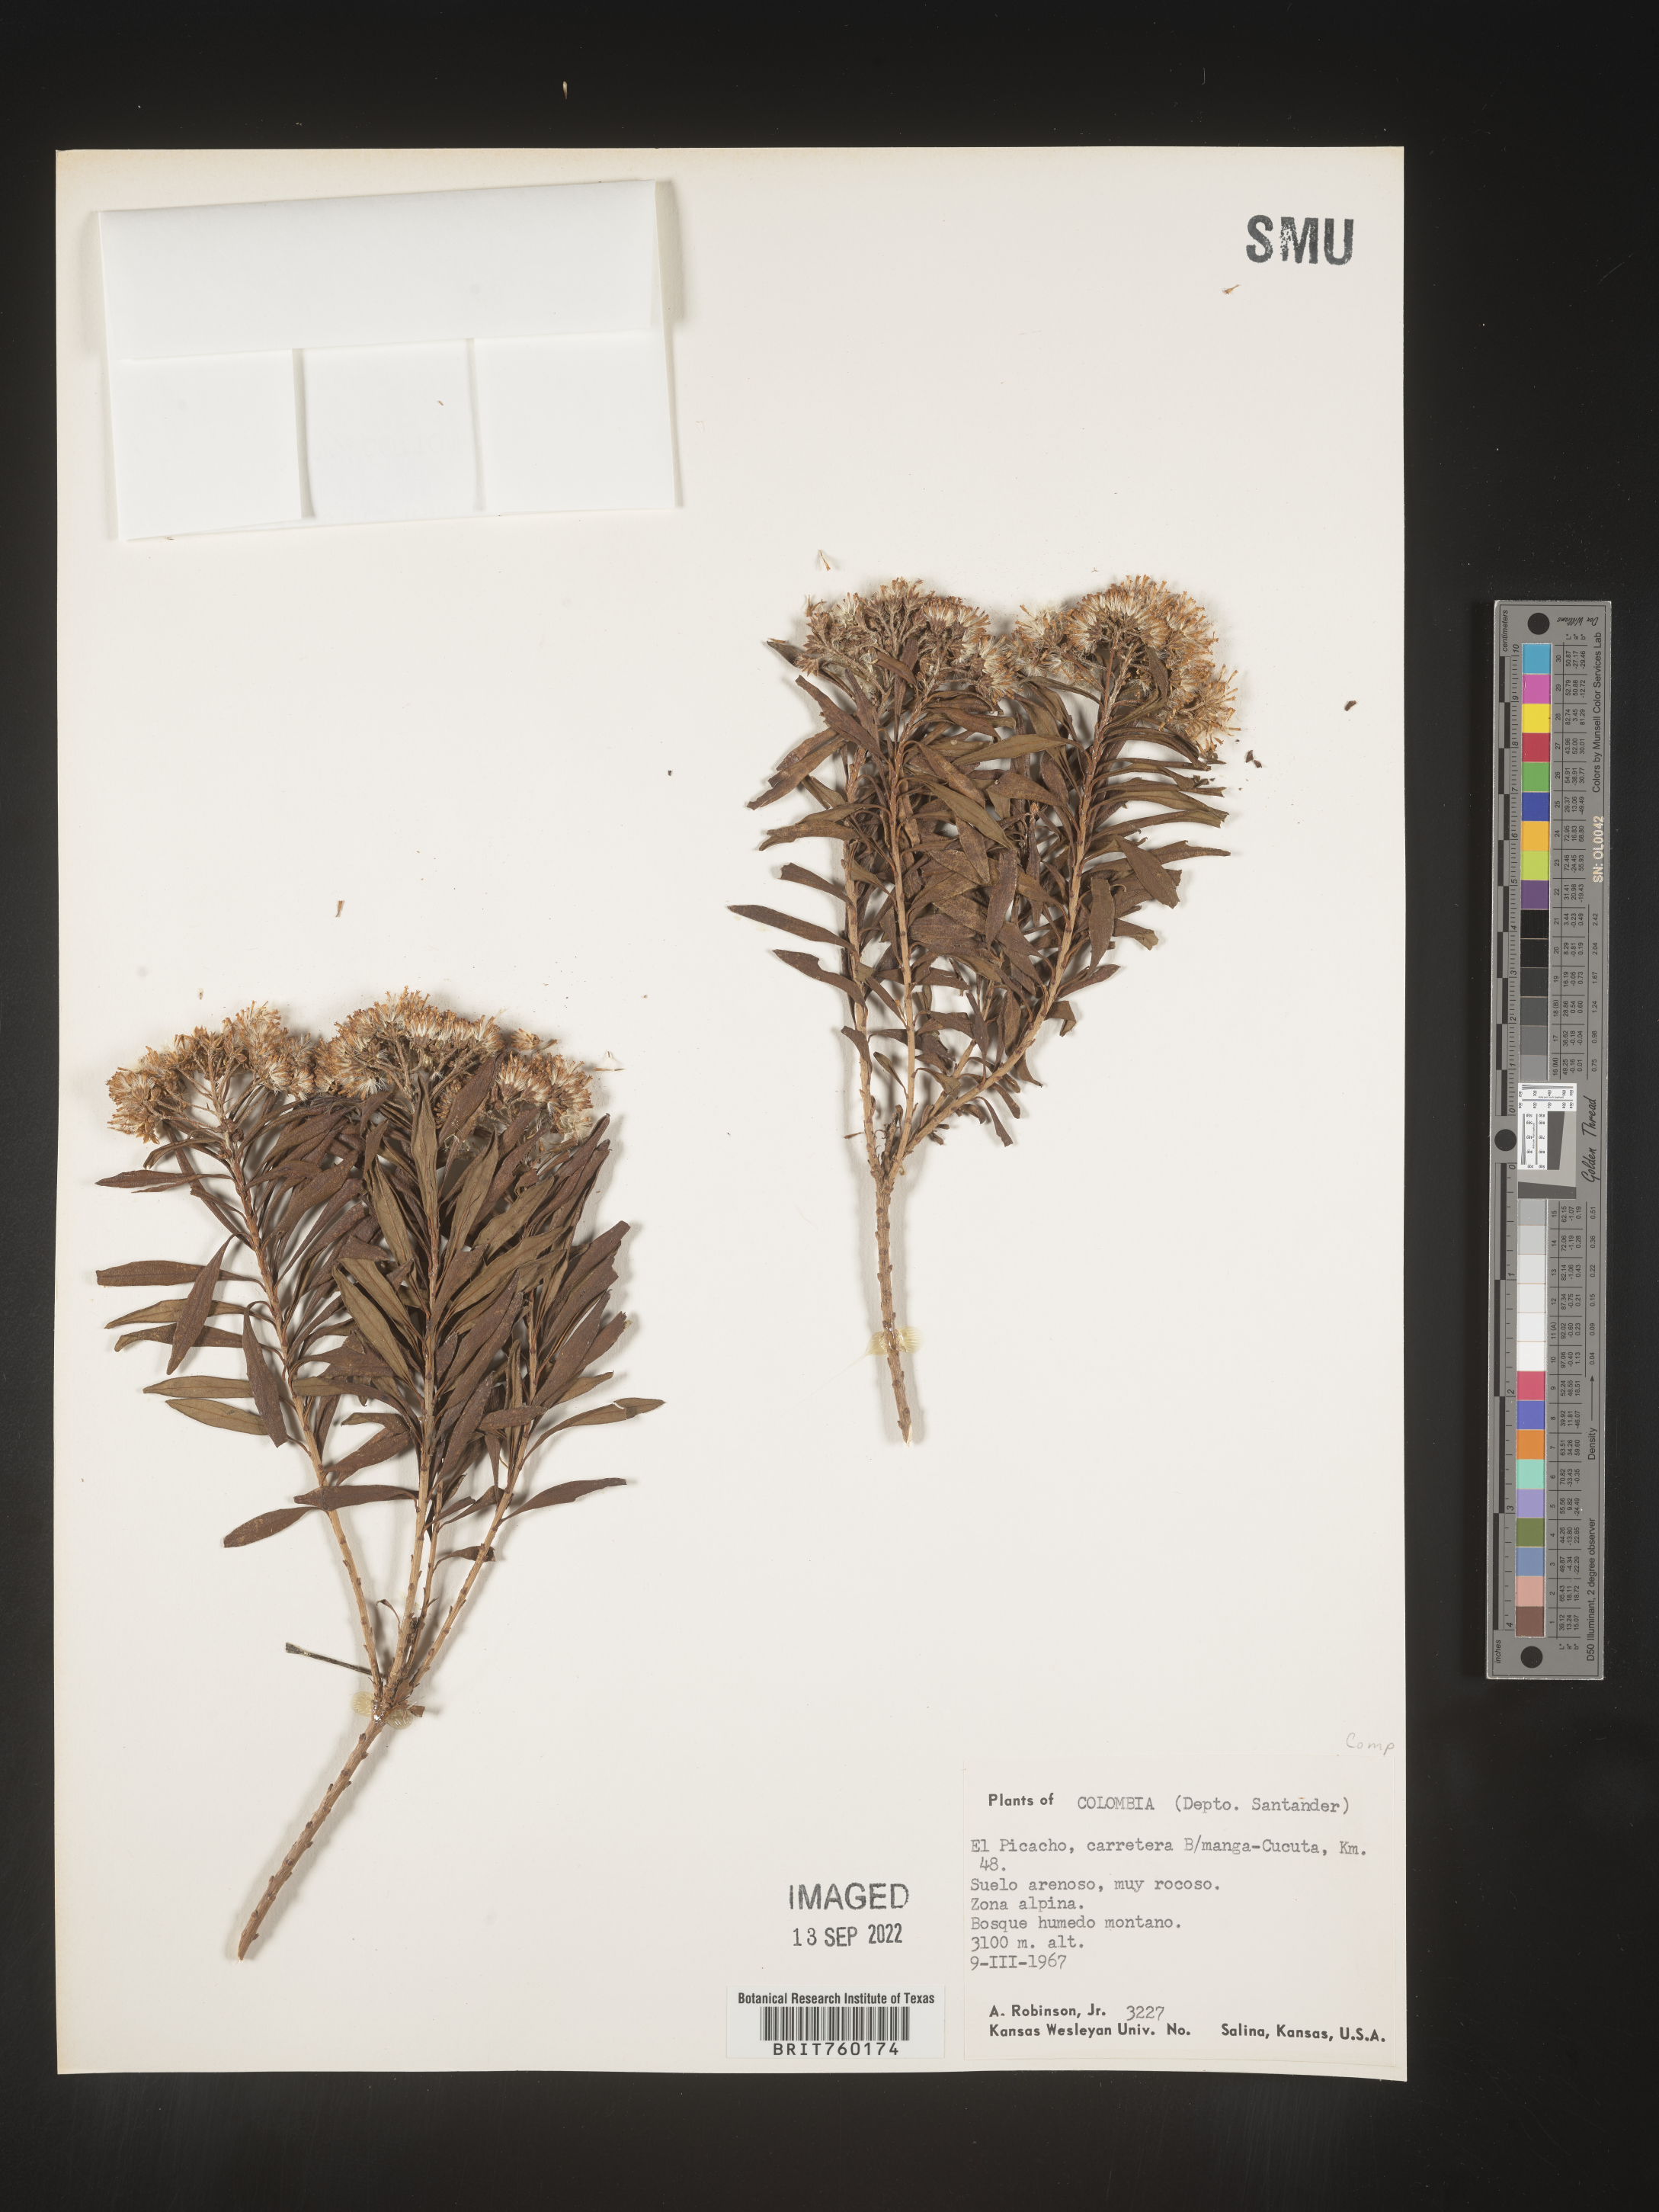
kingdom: Plantae
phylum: Tracheophyta
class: Magnoliopsida
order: Asterales
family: Asteraceae
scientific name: Asteraceae
